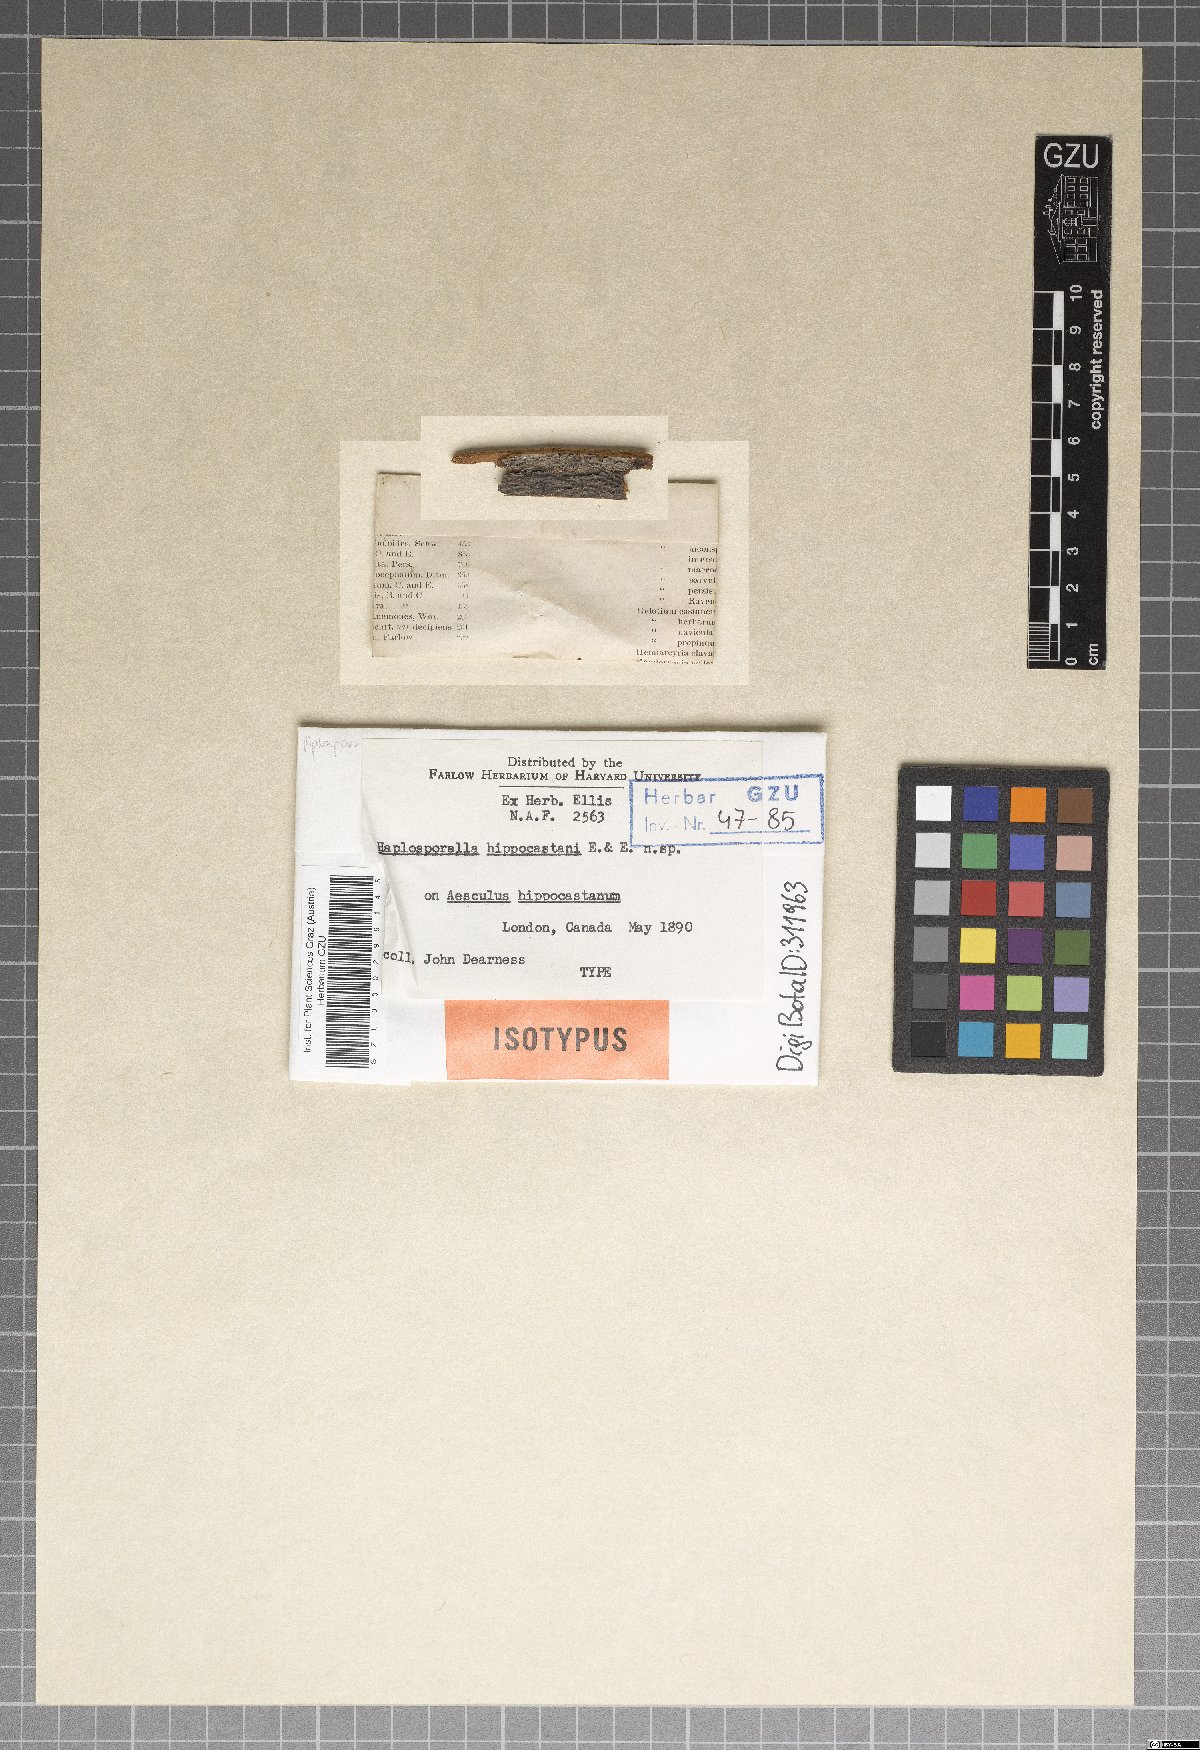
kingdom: Fungi
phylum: Ascomycota
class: Dothideomycetes
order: Botryosphaeriales
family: Botryosphaeriaceae
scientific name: Botryosphaeriaceae
